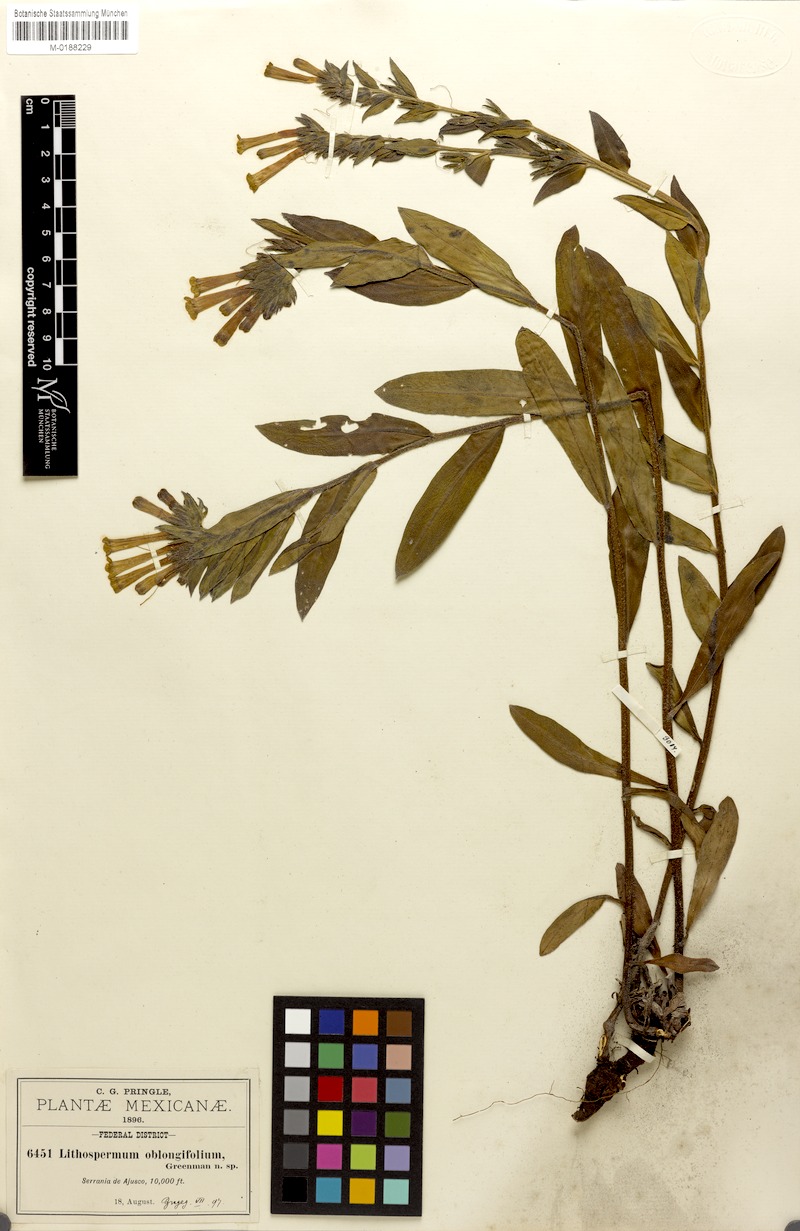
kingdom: Plantae
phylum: Tracheophyta
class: Magnoliopsida
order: Boraginales
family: Boraginaceae
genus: Lithospermum
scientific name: Lithospermum oblongifolium
